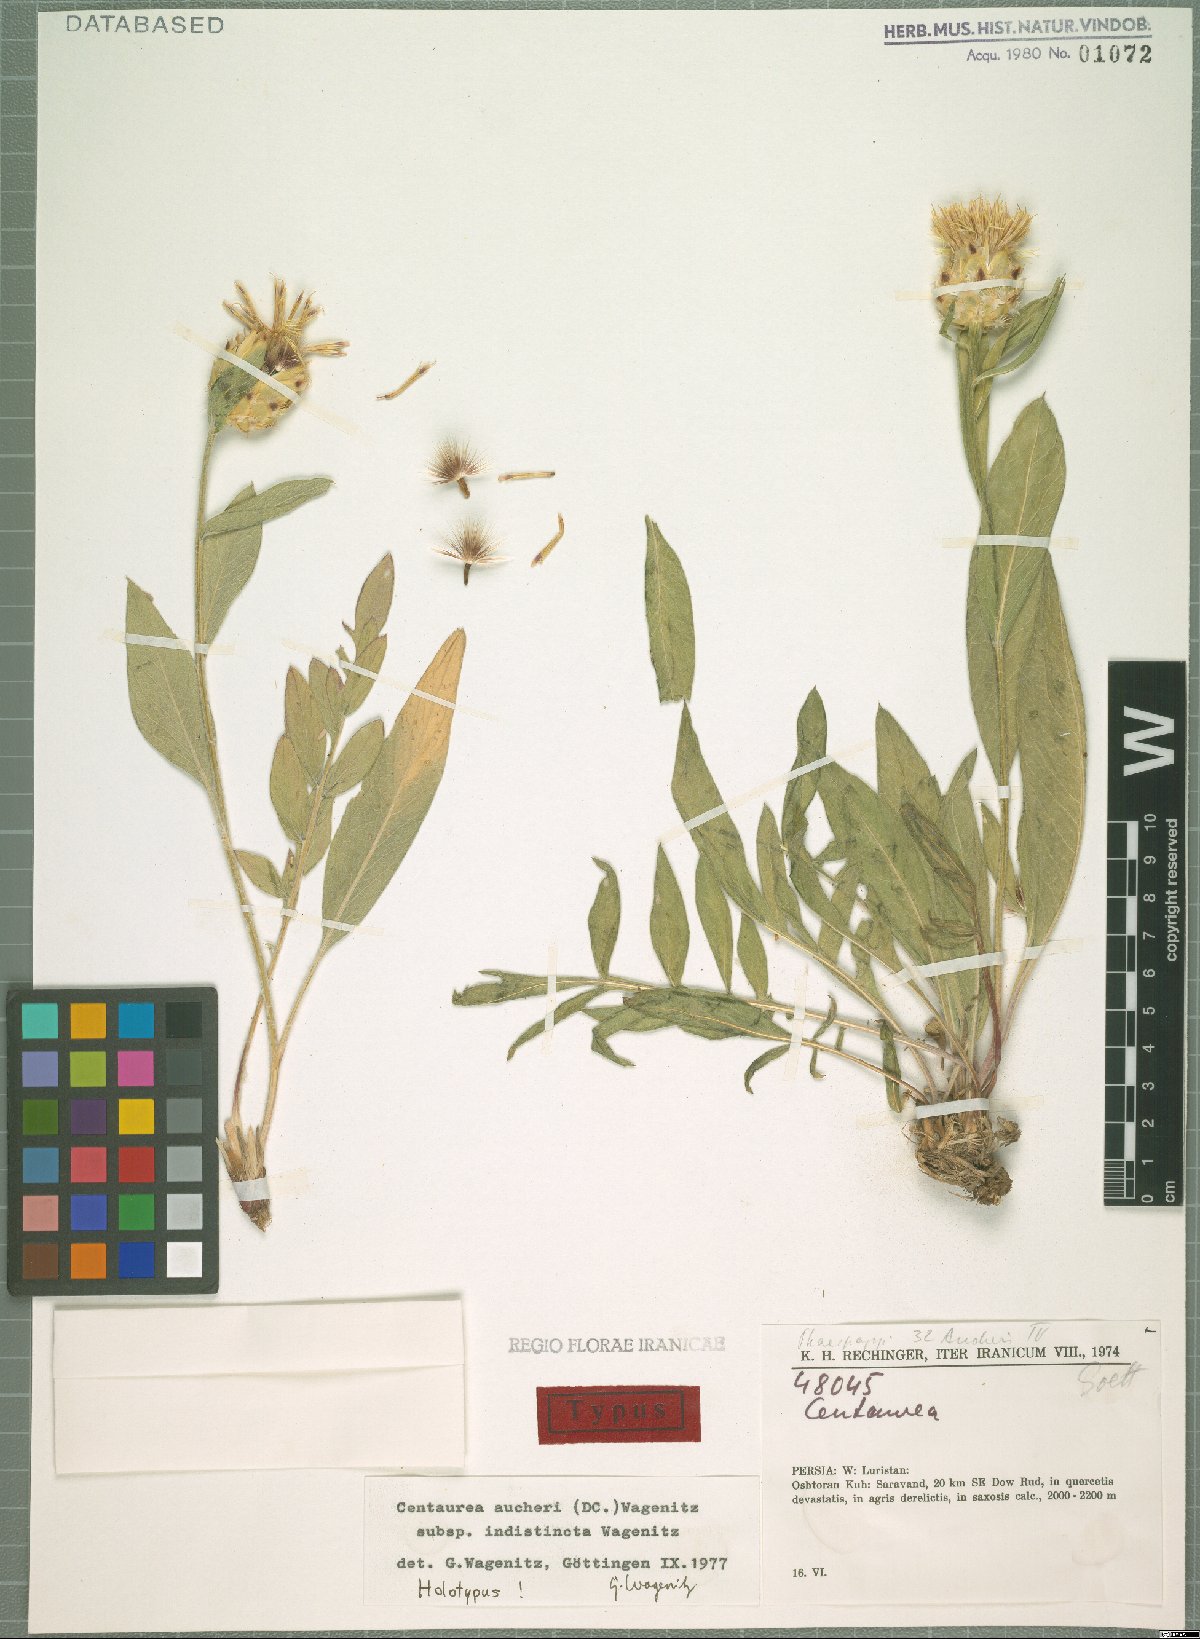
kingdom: Plantae
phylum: Tracheophyta
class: Magnoliopsida
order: Asterales
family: Asteraceae
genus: Centaurea
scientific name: Centaurea indistincta
